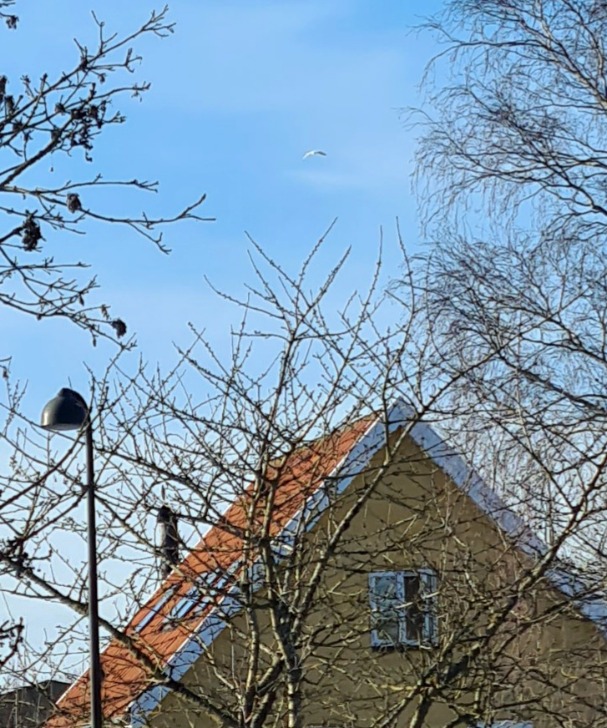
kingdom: Animalia
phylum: Chordata
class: Aves
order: Pelecaniformes
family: Ardeidae
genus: Ardea
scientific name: Ardea alba
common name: Sølvhejre
